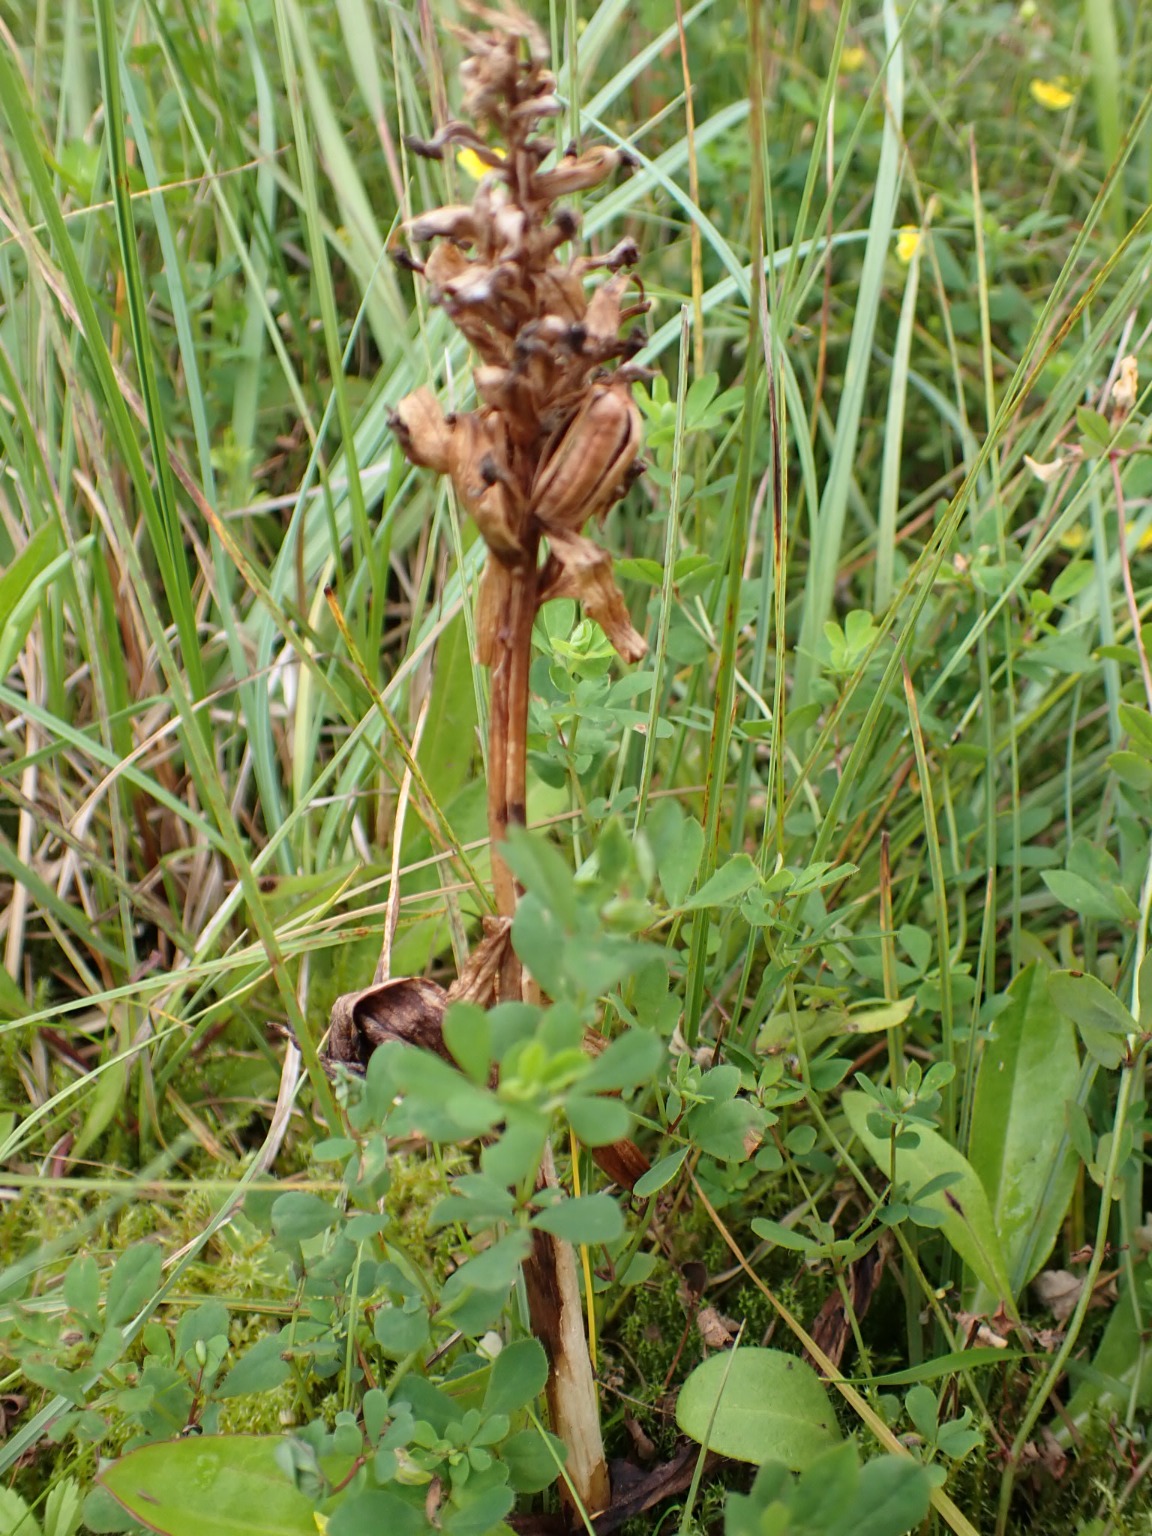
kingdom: Plantae
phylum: Tracheophyta
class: Liliopsida
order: Asparagales
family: Orchidaceae
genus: Dactylorhiza
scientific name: Dactylorhiza majalis
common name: Maj-gøgeurt
